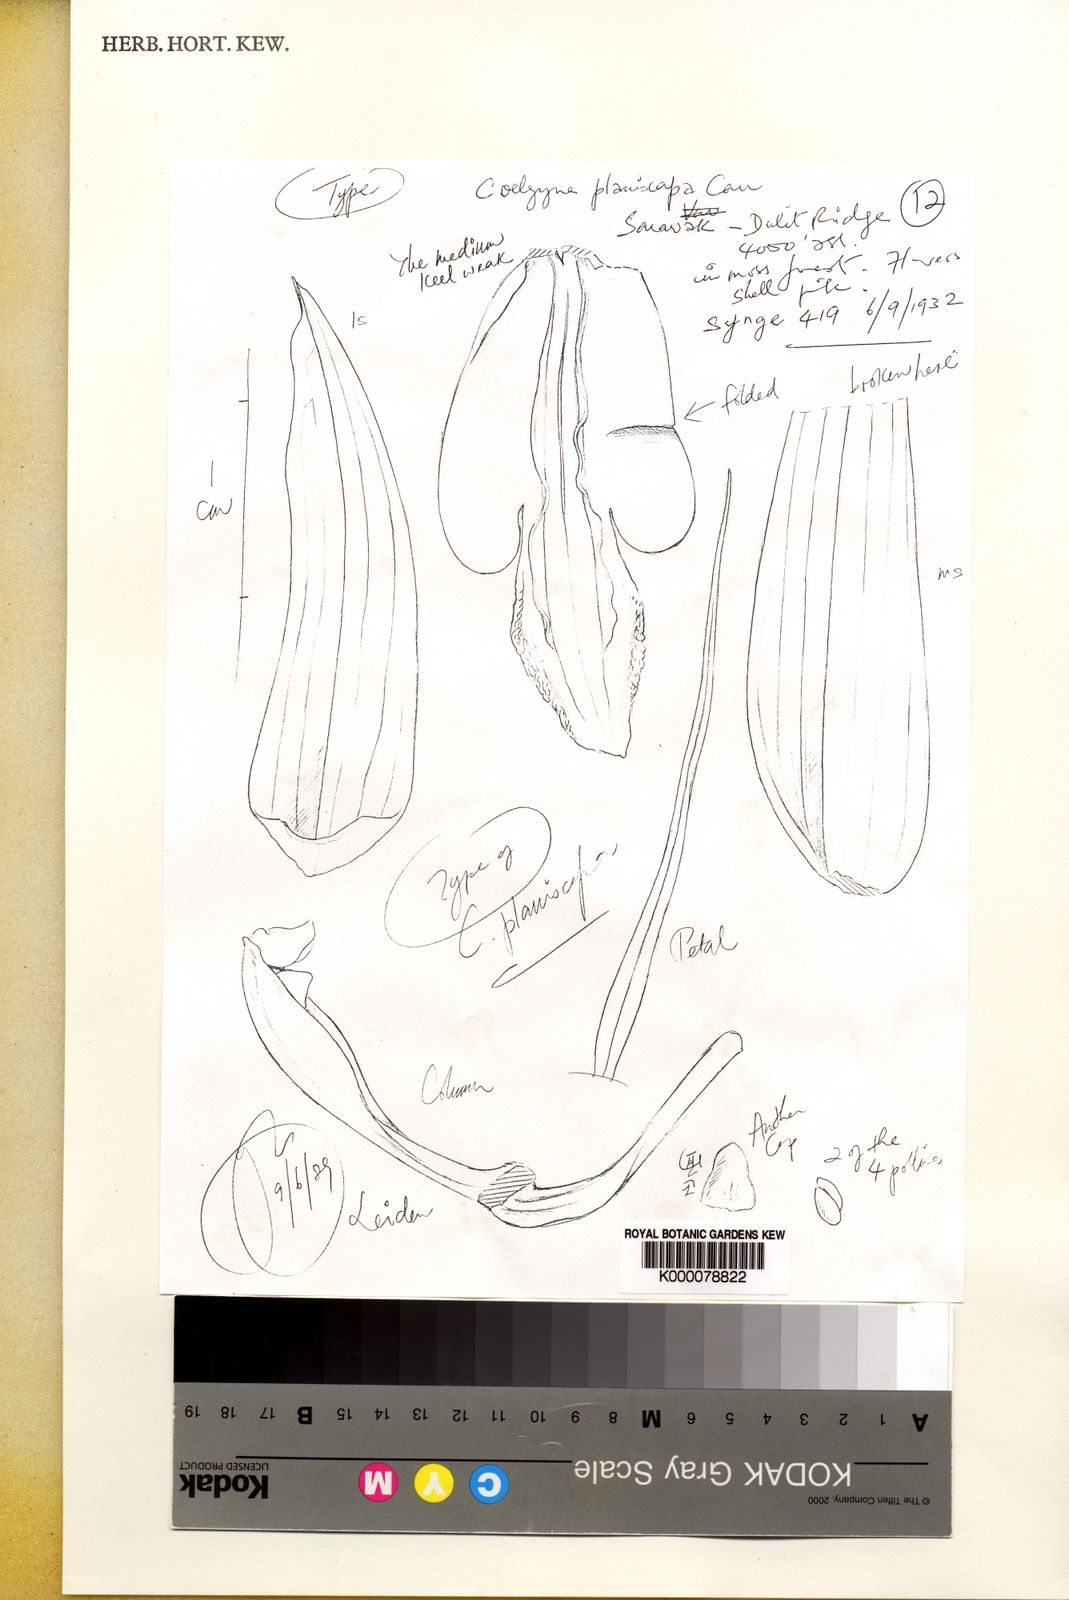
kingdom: Plantae
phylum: Tracheophyta
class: Liliopsida
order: Asparagales
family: Orchidaceae
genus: Coelogyne
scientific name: Coelogyne planiscapa
